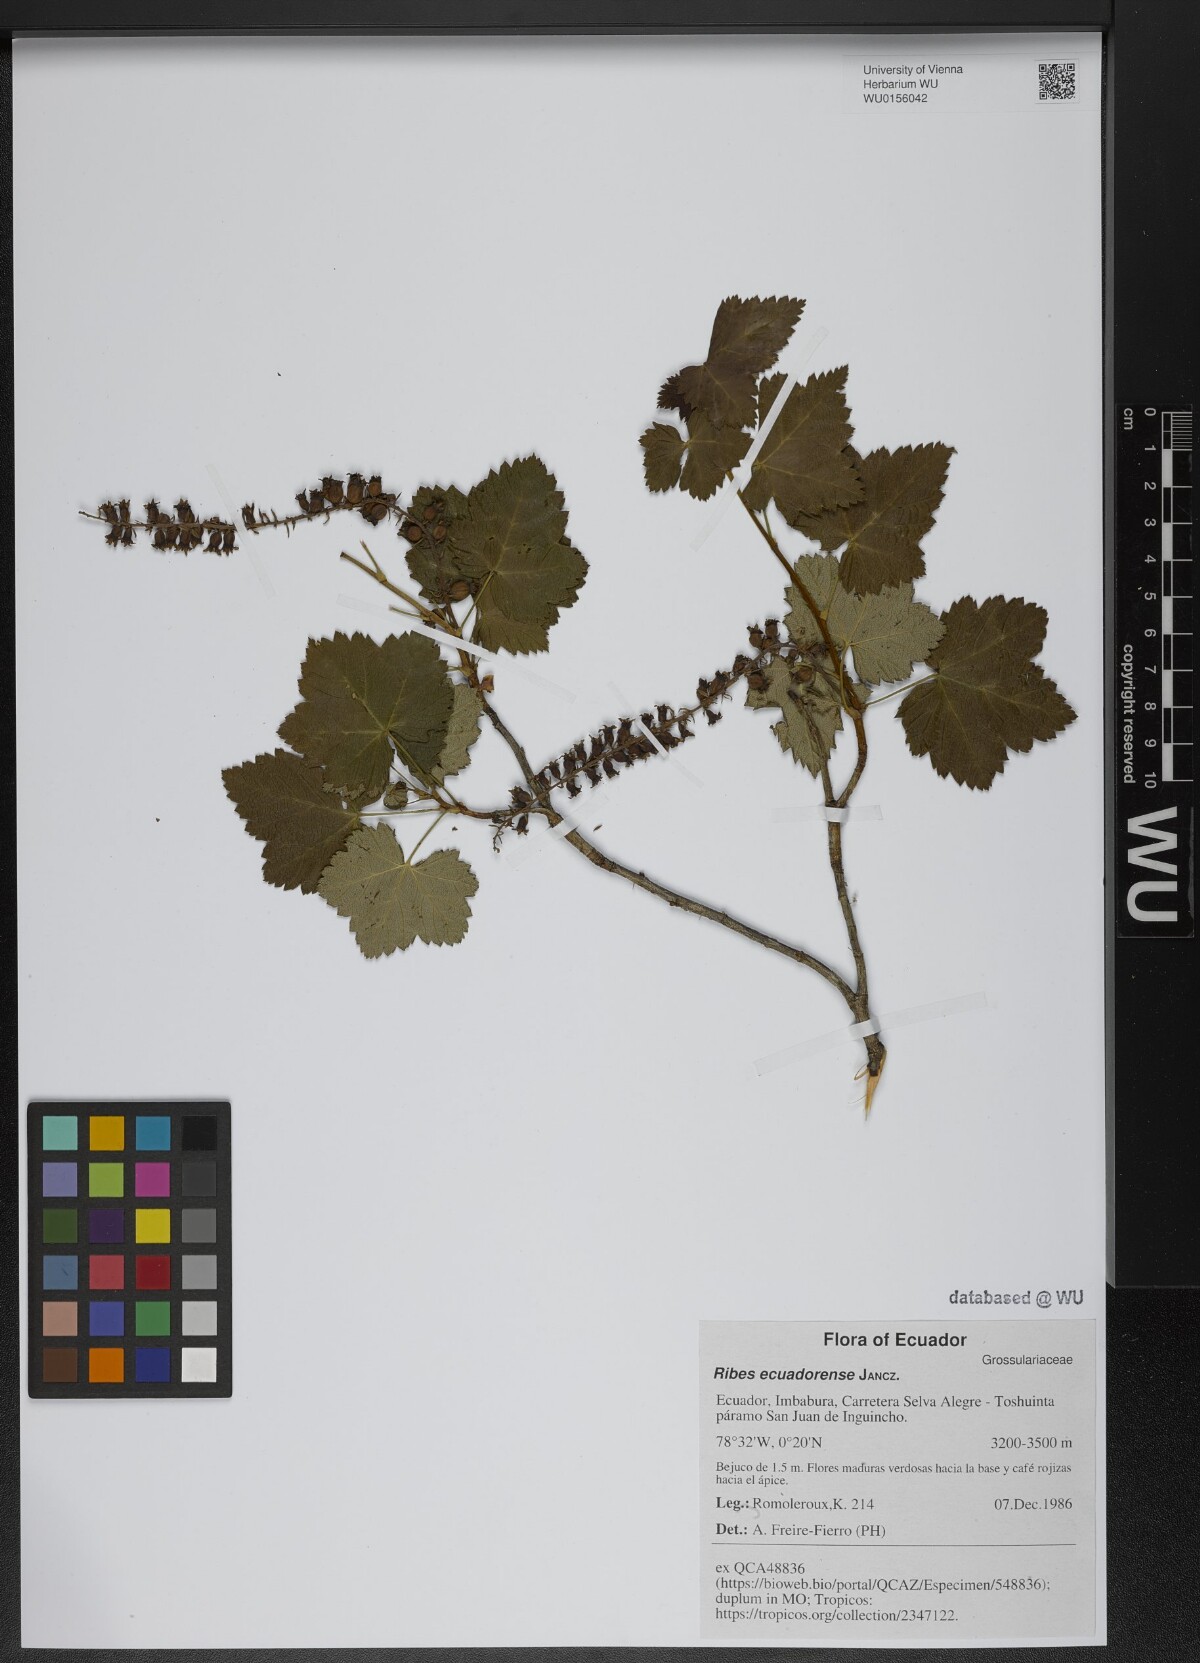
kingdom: Plantae
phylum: Tracheophyta
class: Magnoliopsida
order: Saxifragales
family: Grossulariaceae
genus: Ribes
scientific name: Ribes ecuadorense
